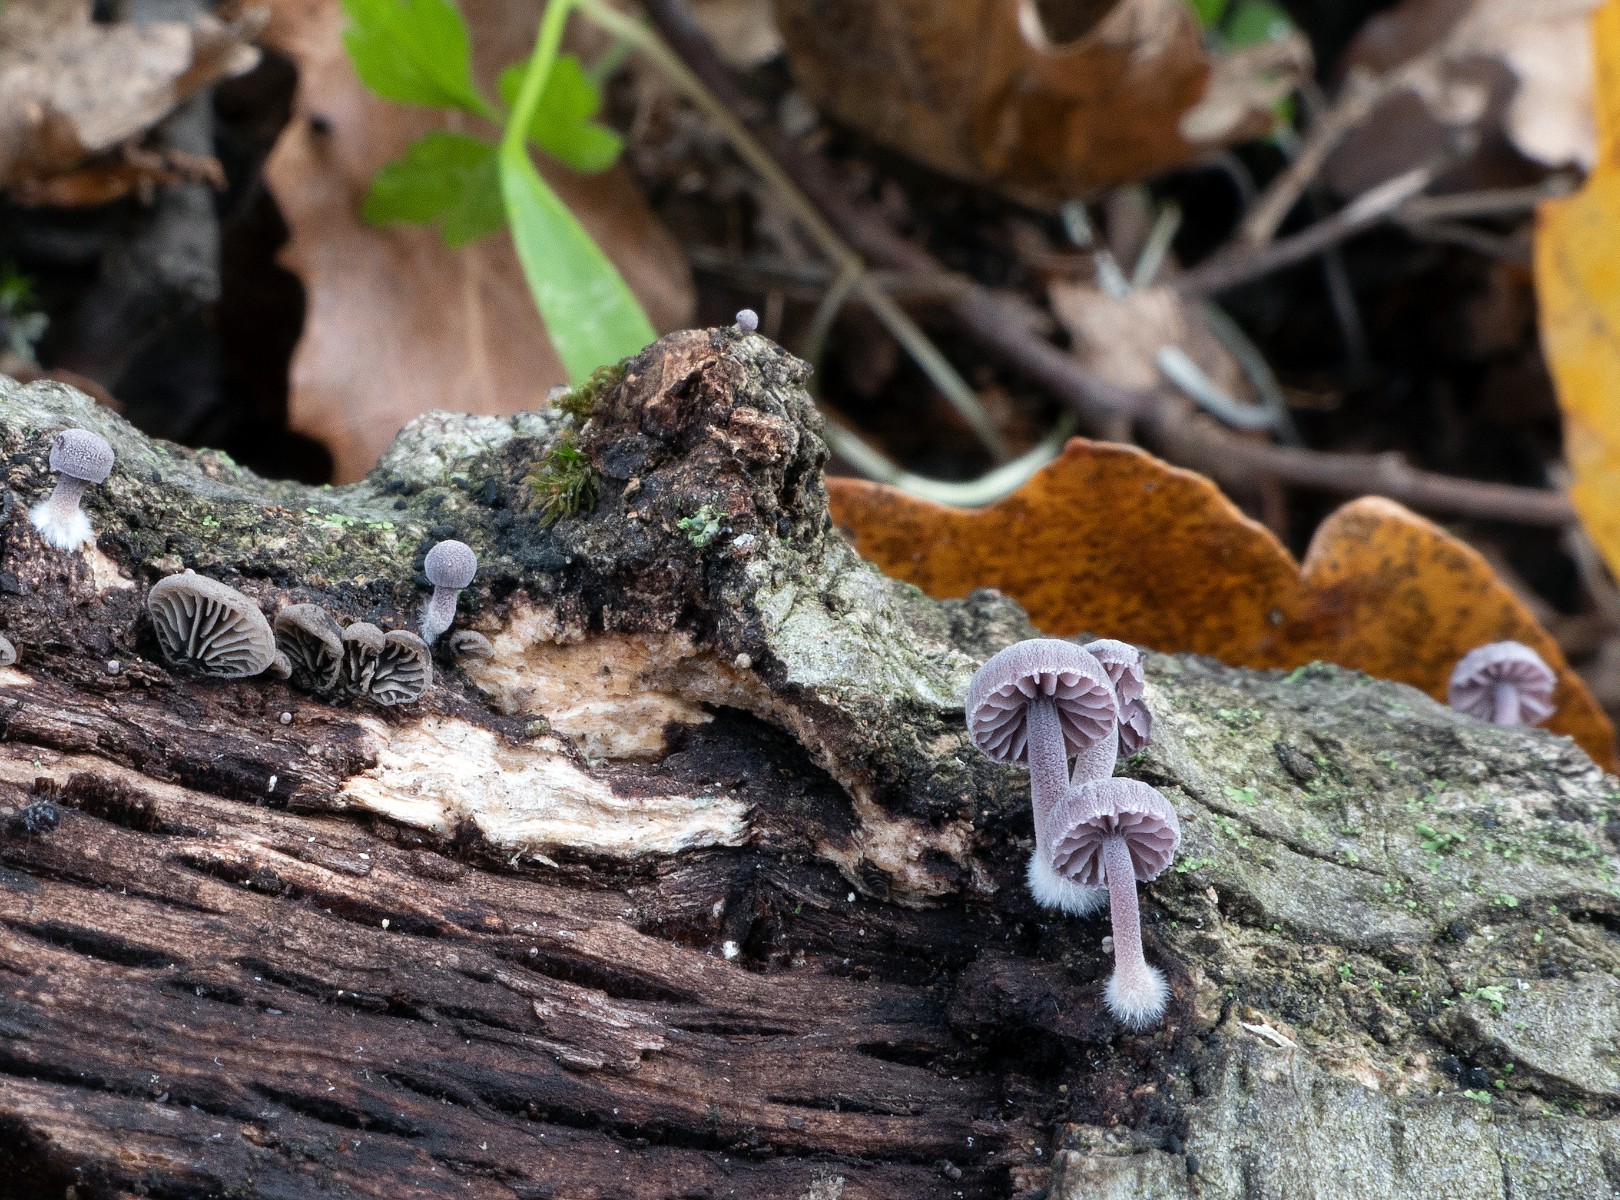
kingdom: Fungi
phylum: Basidiomycota
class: Agaricomycetes
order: Agaricales
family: Mycenaceae
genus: Mycena
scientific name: Mycena pseudocorticola
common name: gråblå bark-huesvamp
